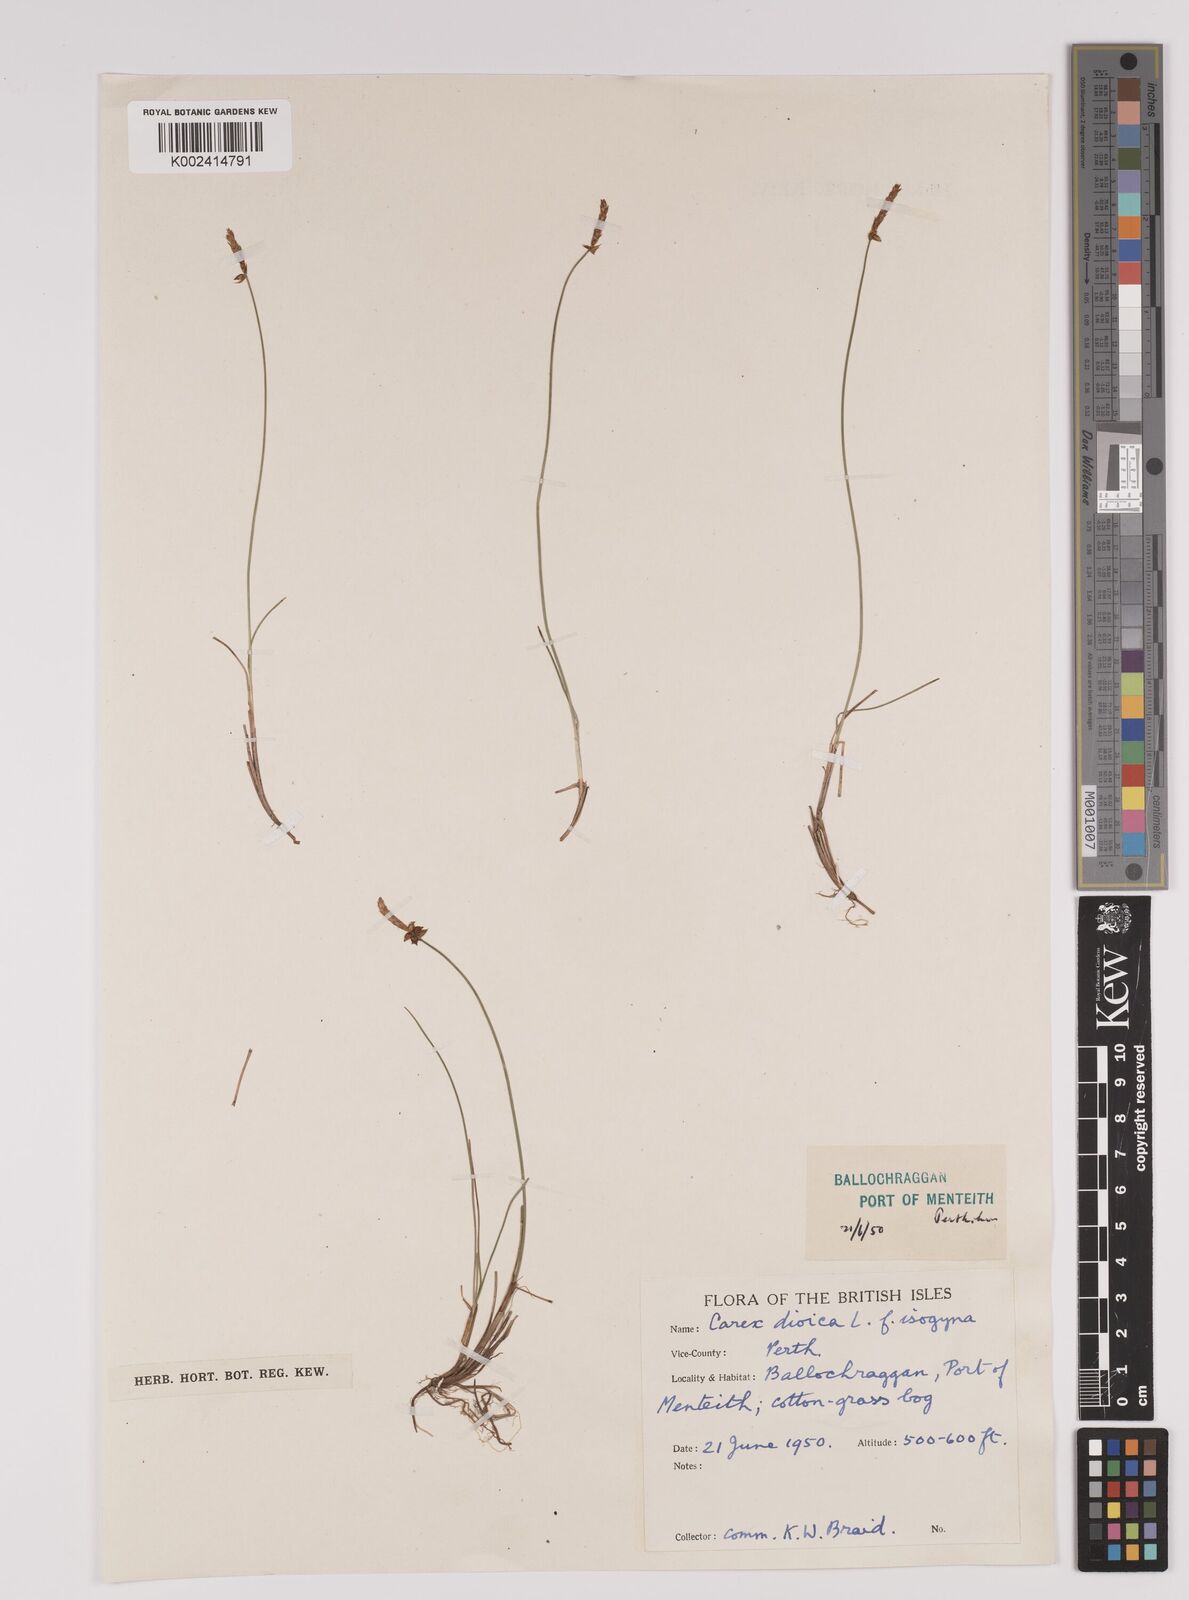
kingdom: Plantae
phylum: Tracheophyta
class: Liliopsida
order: Poales
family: Cyperaceae
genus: Carex
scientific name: Carex dioica
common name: Dioecious sedge
